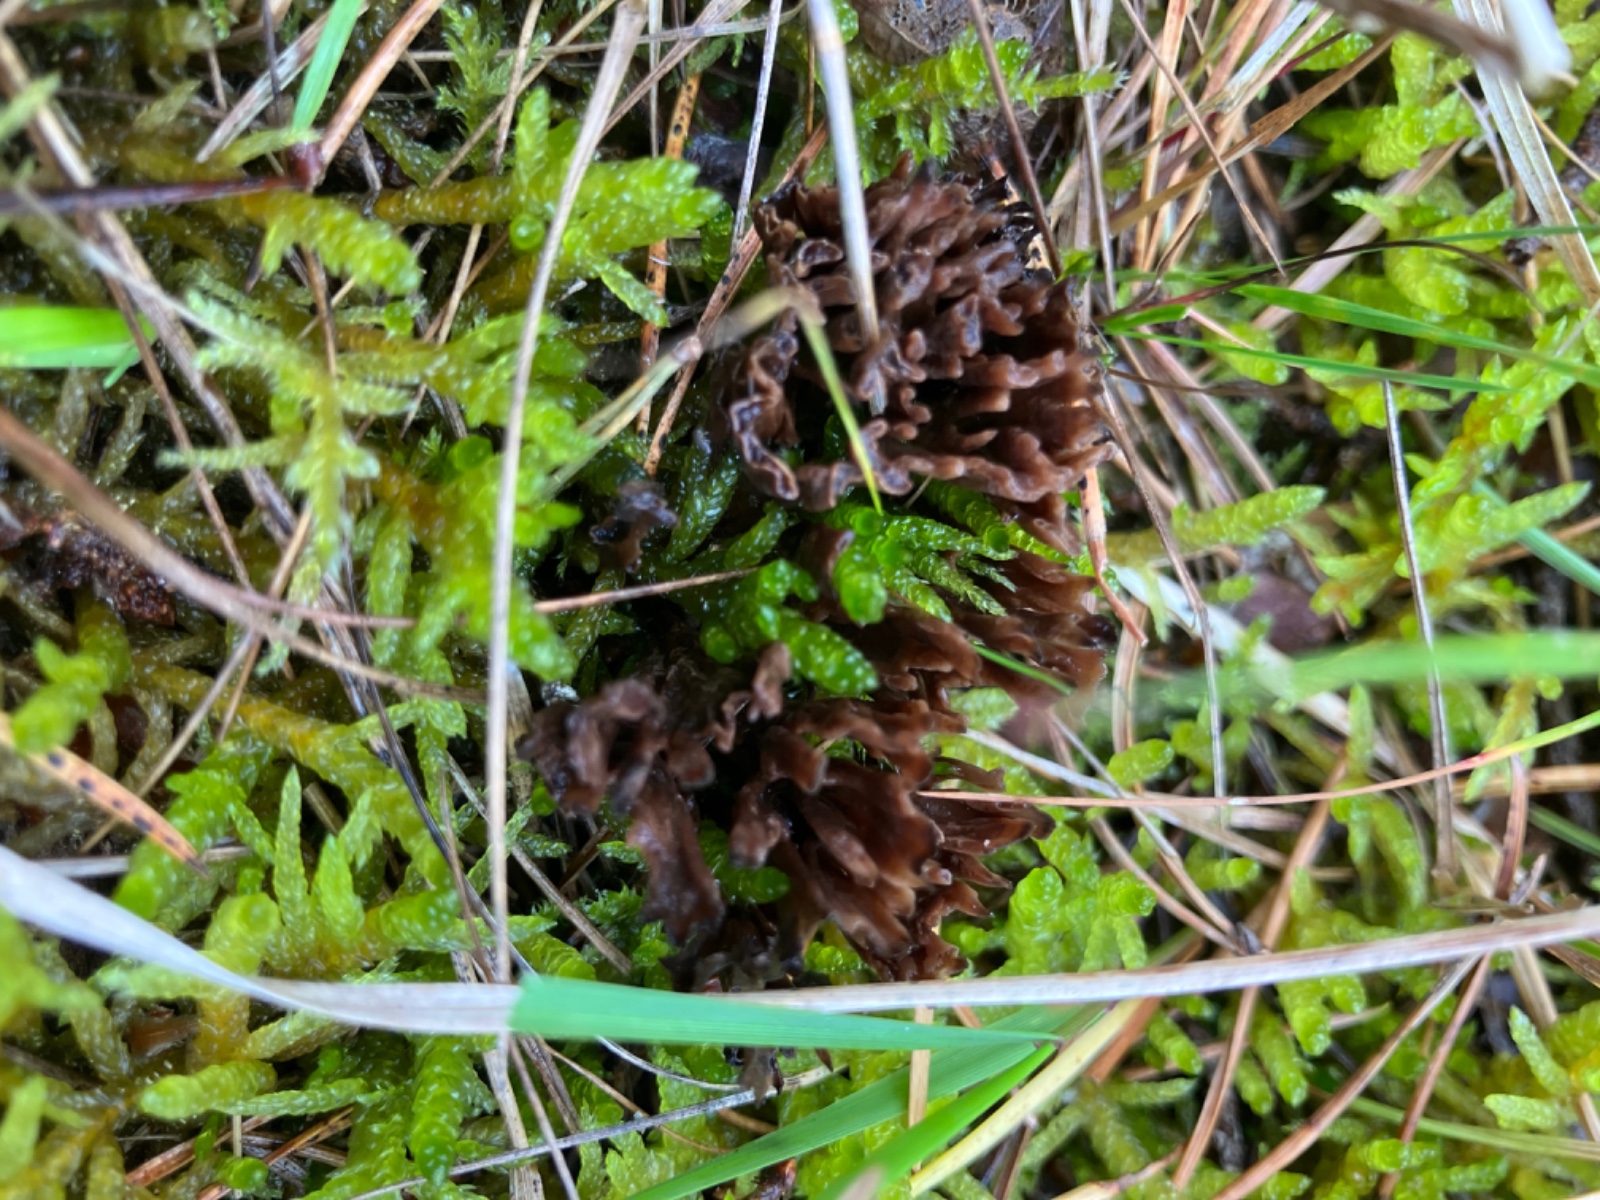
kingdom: Fungi
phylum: Basidiomycota
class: Agaricomycetes
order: Thelephorales
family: Thelephoraceae
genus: Thelephora
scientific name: Thelephora palmata
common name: grenet frynsesvamp
